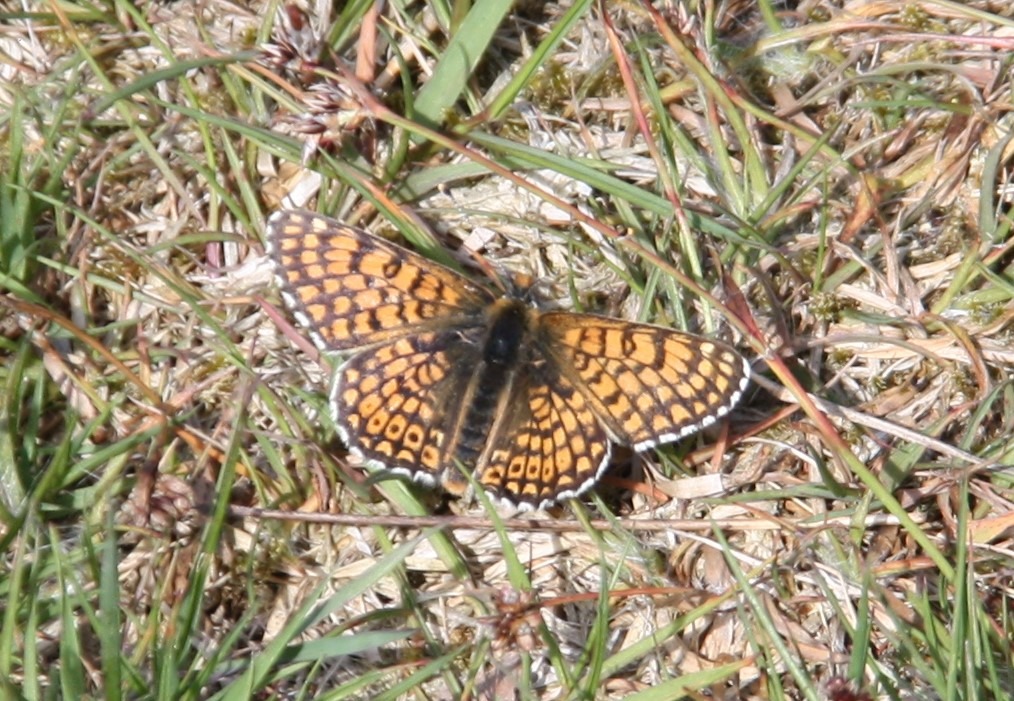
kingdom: Animalia
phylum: Arthropoda
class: Insecta
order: Lepidoptera
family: Nymphalidae
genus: Melitaea
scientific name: Melitaea cinxia
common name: Okkergul pletvinge
